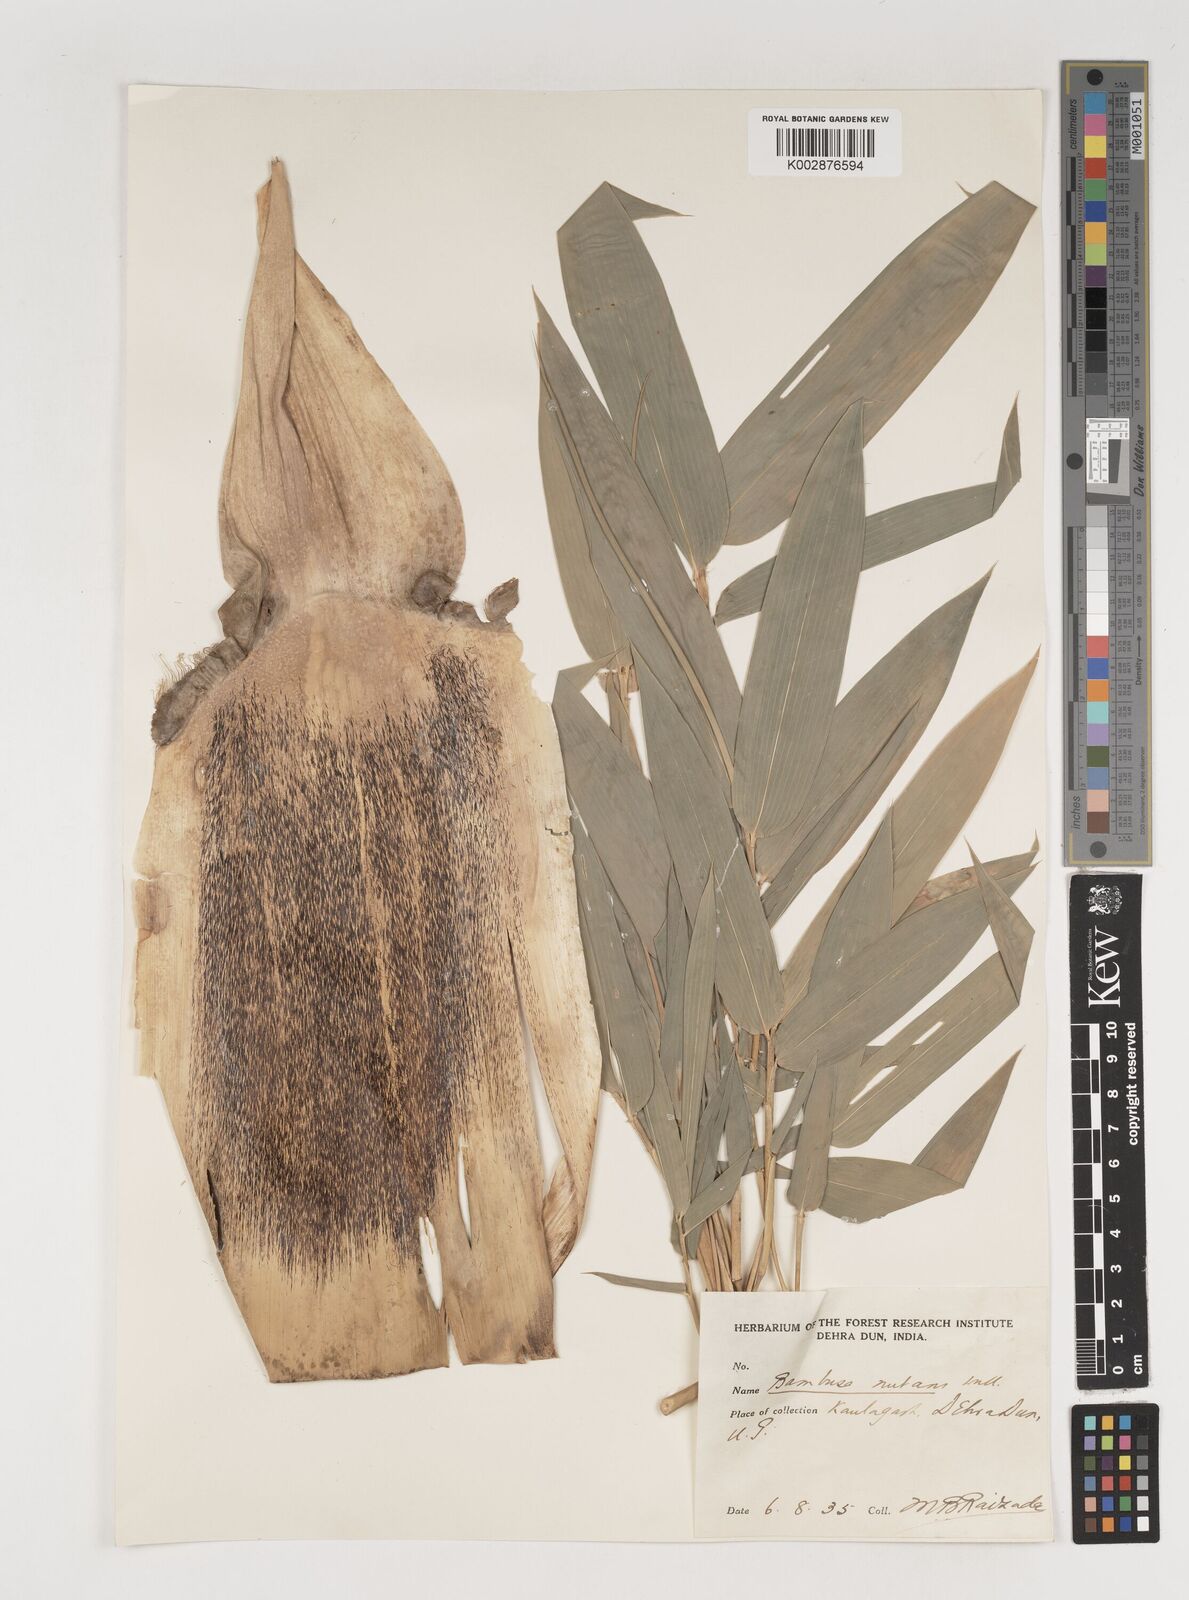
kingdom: Plantae
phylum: Tracheophyta
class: Liliopsida
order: Poales
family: Poaceae
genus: Bambusa
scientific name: Bambusa nutans
